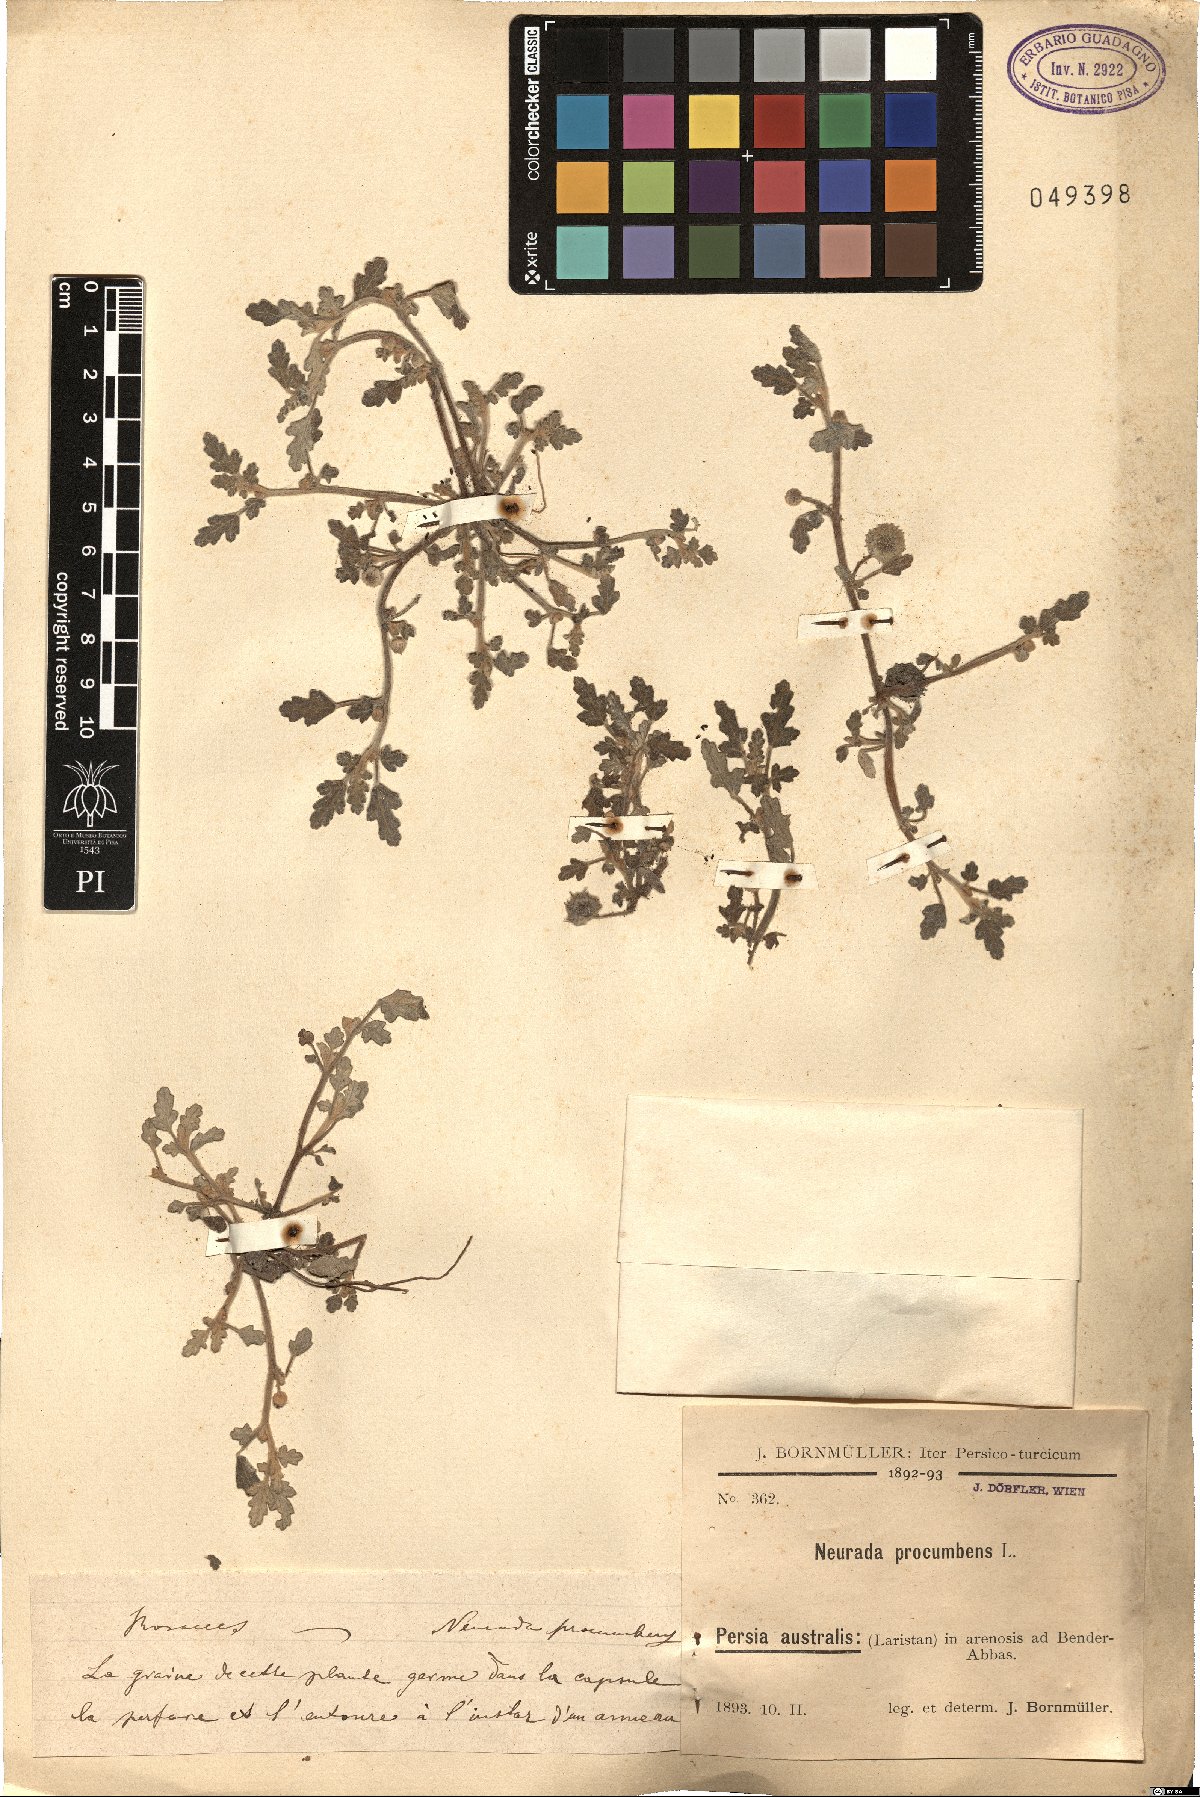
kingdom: Plantae
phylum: Tracheophyta
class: Magnoliopsida
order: Malvales
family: Neuradaceae
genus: Neurada
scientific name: Neurada procumbens
